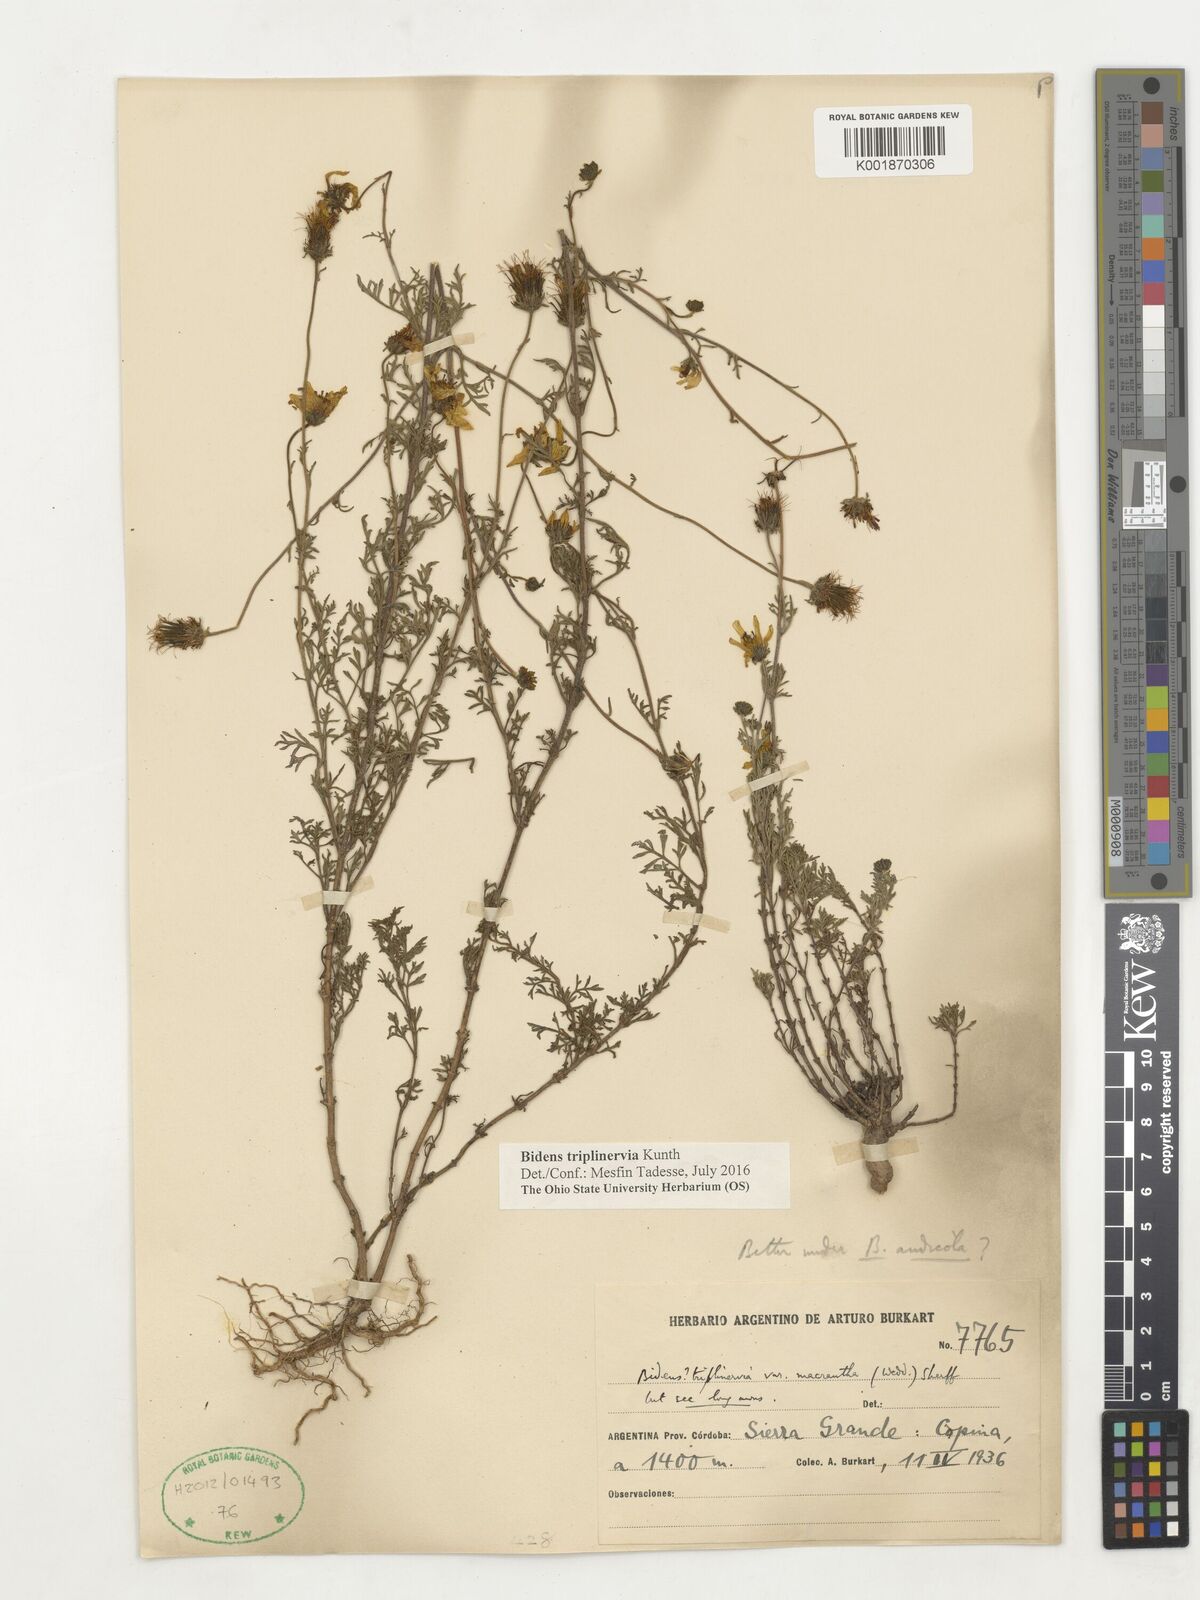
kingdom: Plantae
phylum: Tracheophyta
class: Magnoliopsida
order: Asterales
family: Asteraceae
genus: Bidens
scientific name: Bidens triplinervia
